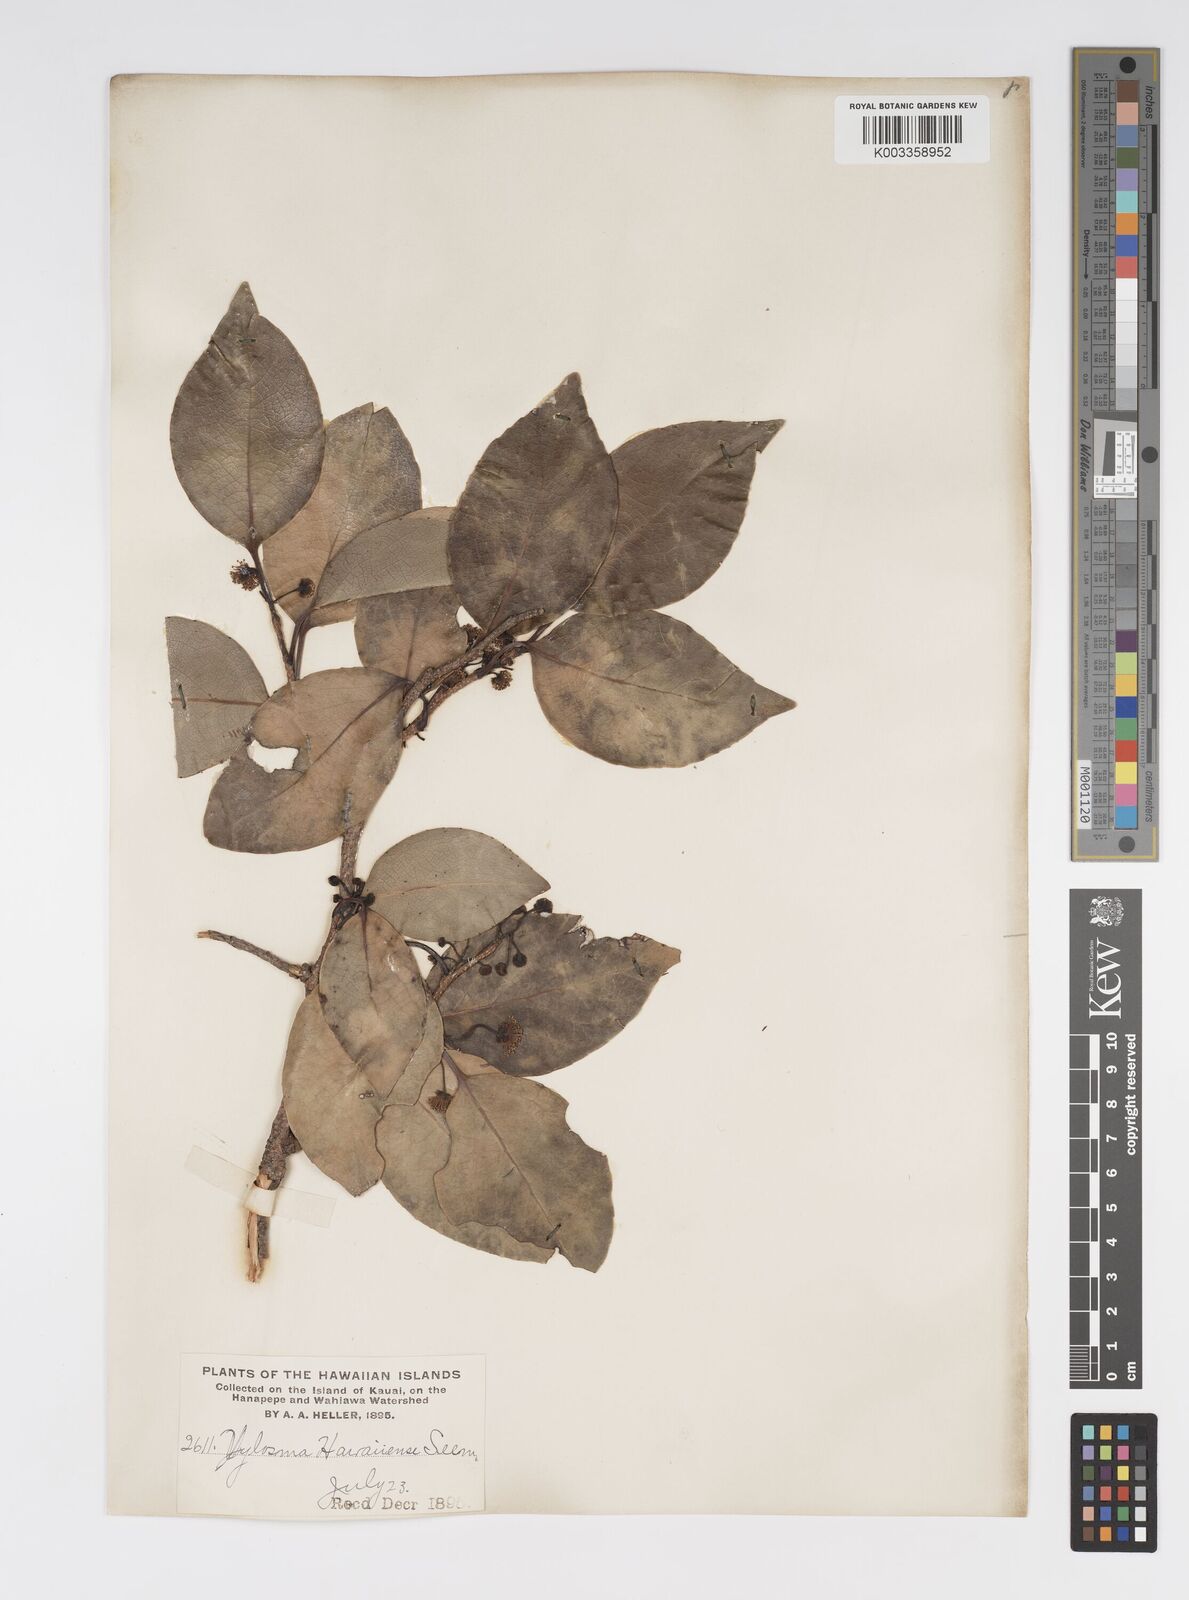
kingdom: Plantae
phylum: Tracheophyta
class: Magnoliopsida
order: Malpighiales
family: Salicaceae
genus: Xylosma
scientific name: Xylosma hawaiense
